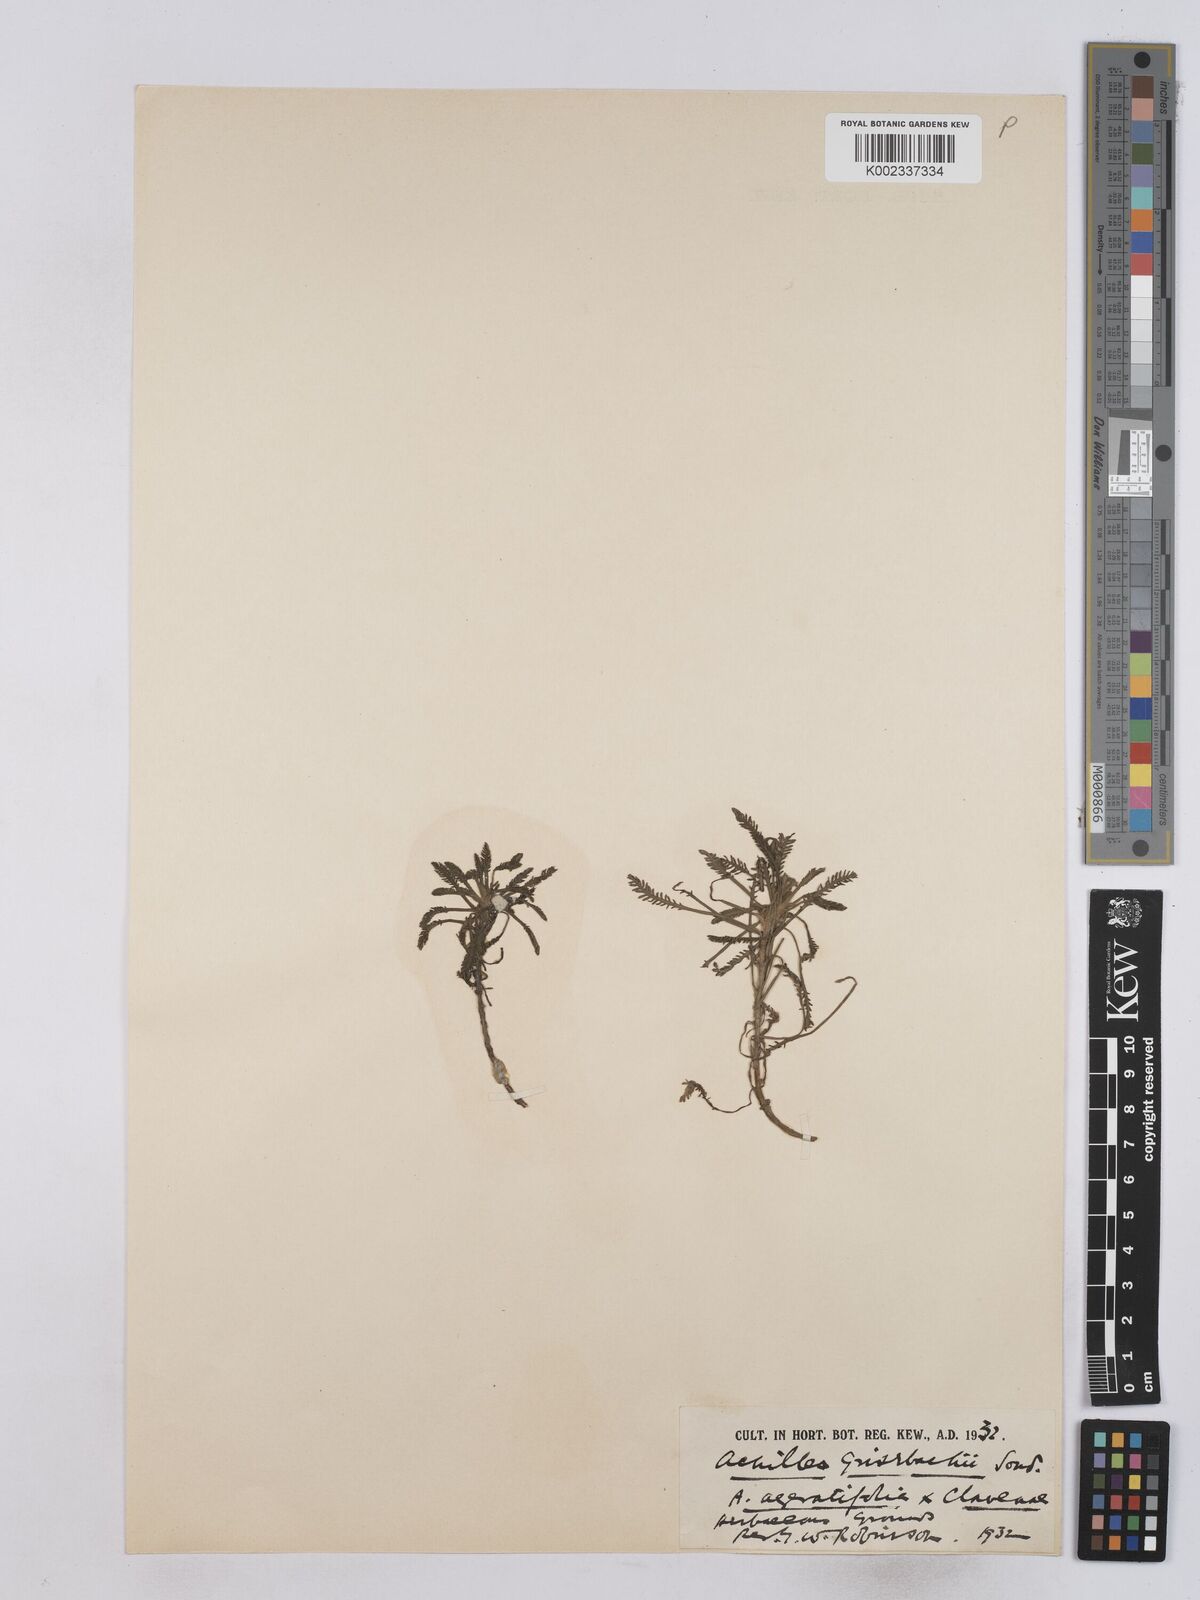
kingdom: Plantae
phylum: Tracheophyta
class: Magnoliopsida
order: Asterales
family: Asteraceae
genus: Achillea
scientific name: Achillea grisebachii
